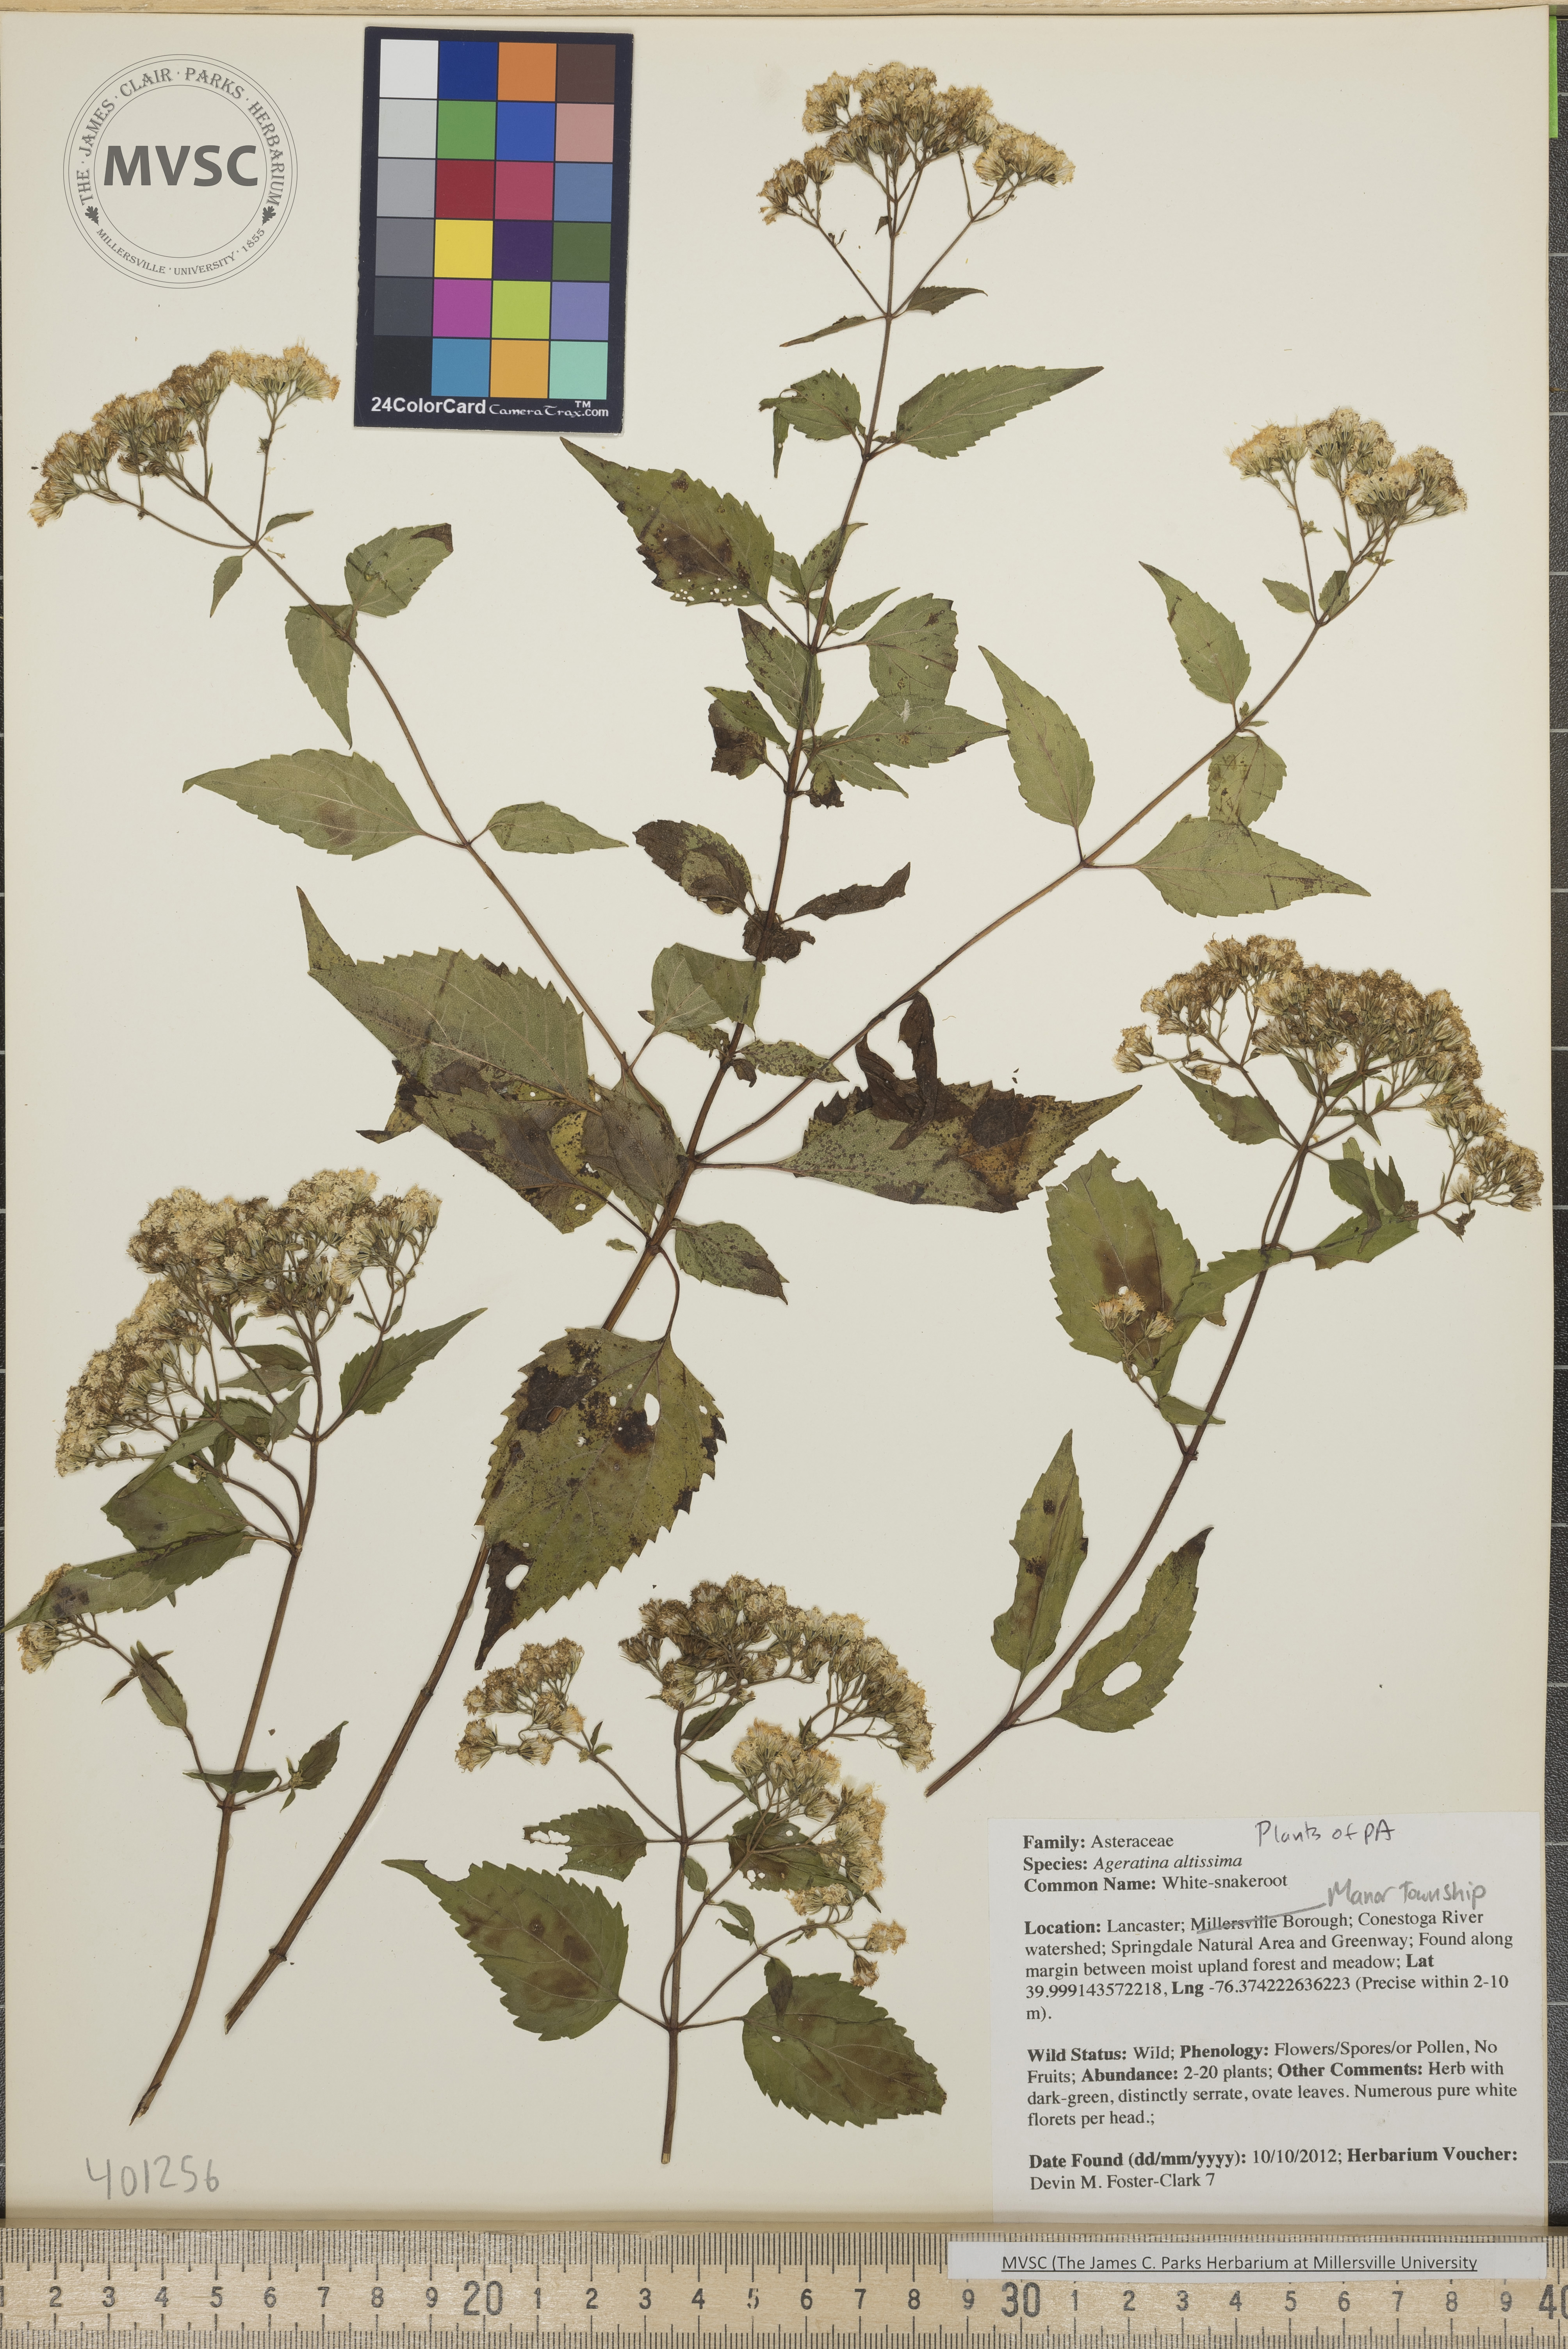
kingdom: Plantae
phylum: Tracheophyta
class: Magnoliopsida
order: Asterales
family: Asteraceae
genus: Ageratina
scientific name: Ageratina altissima
